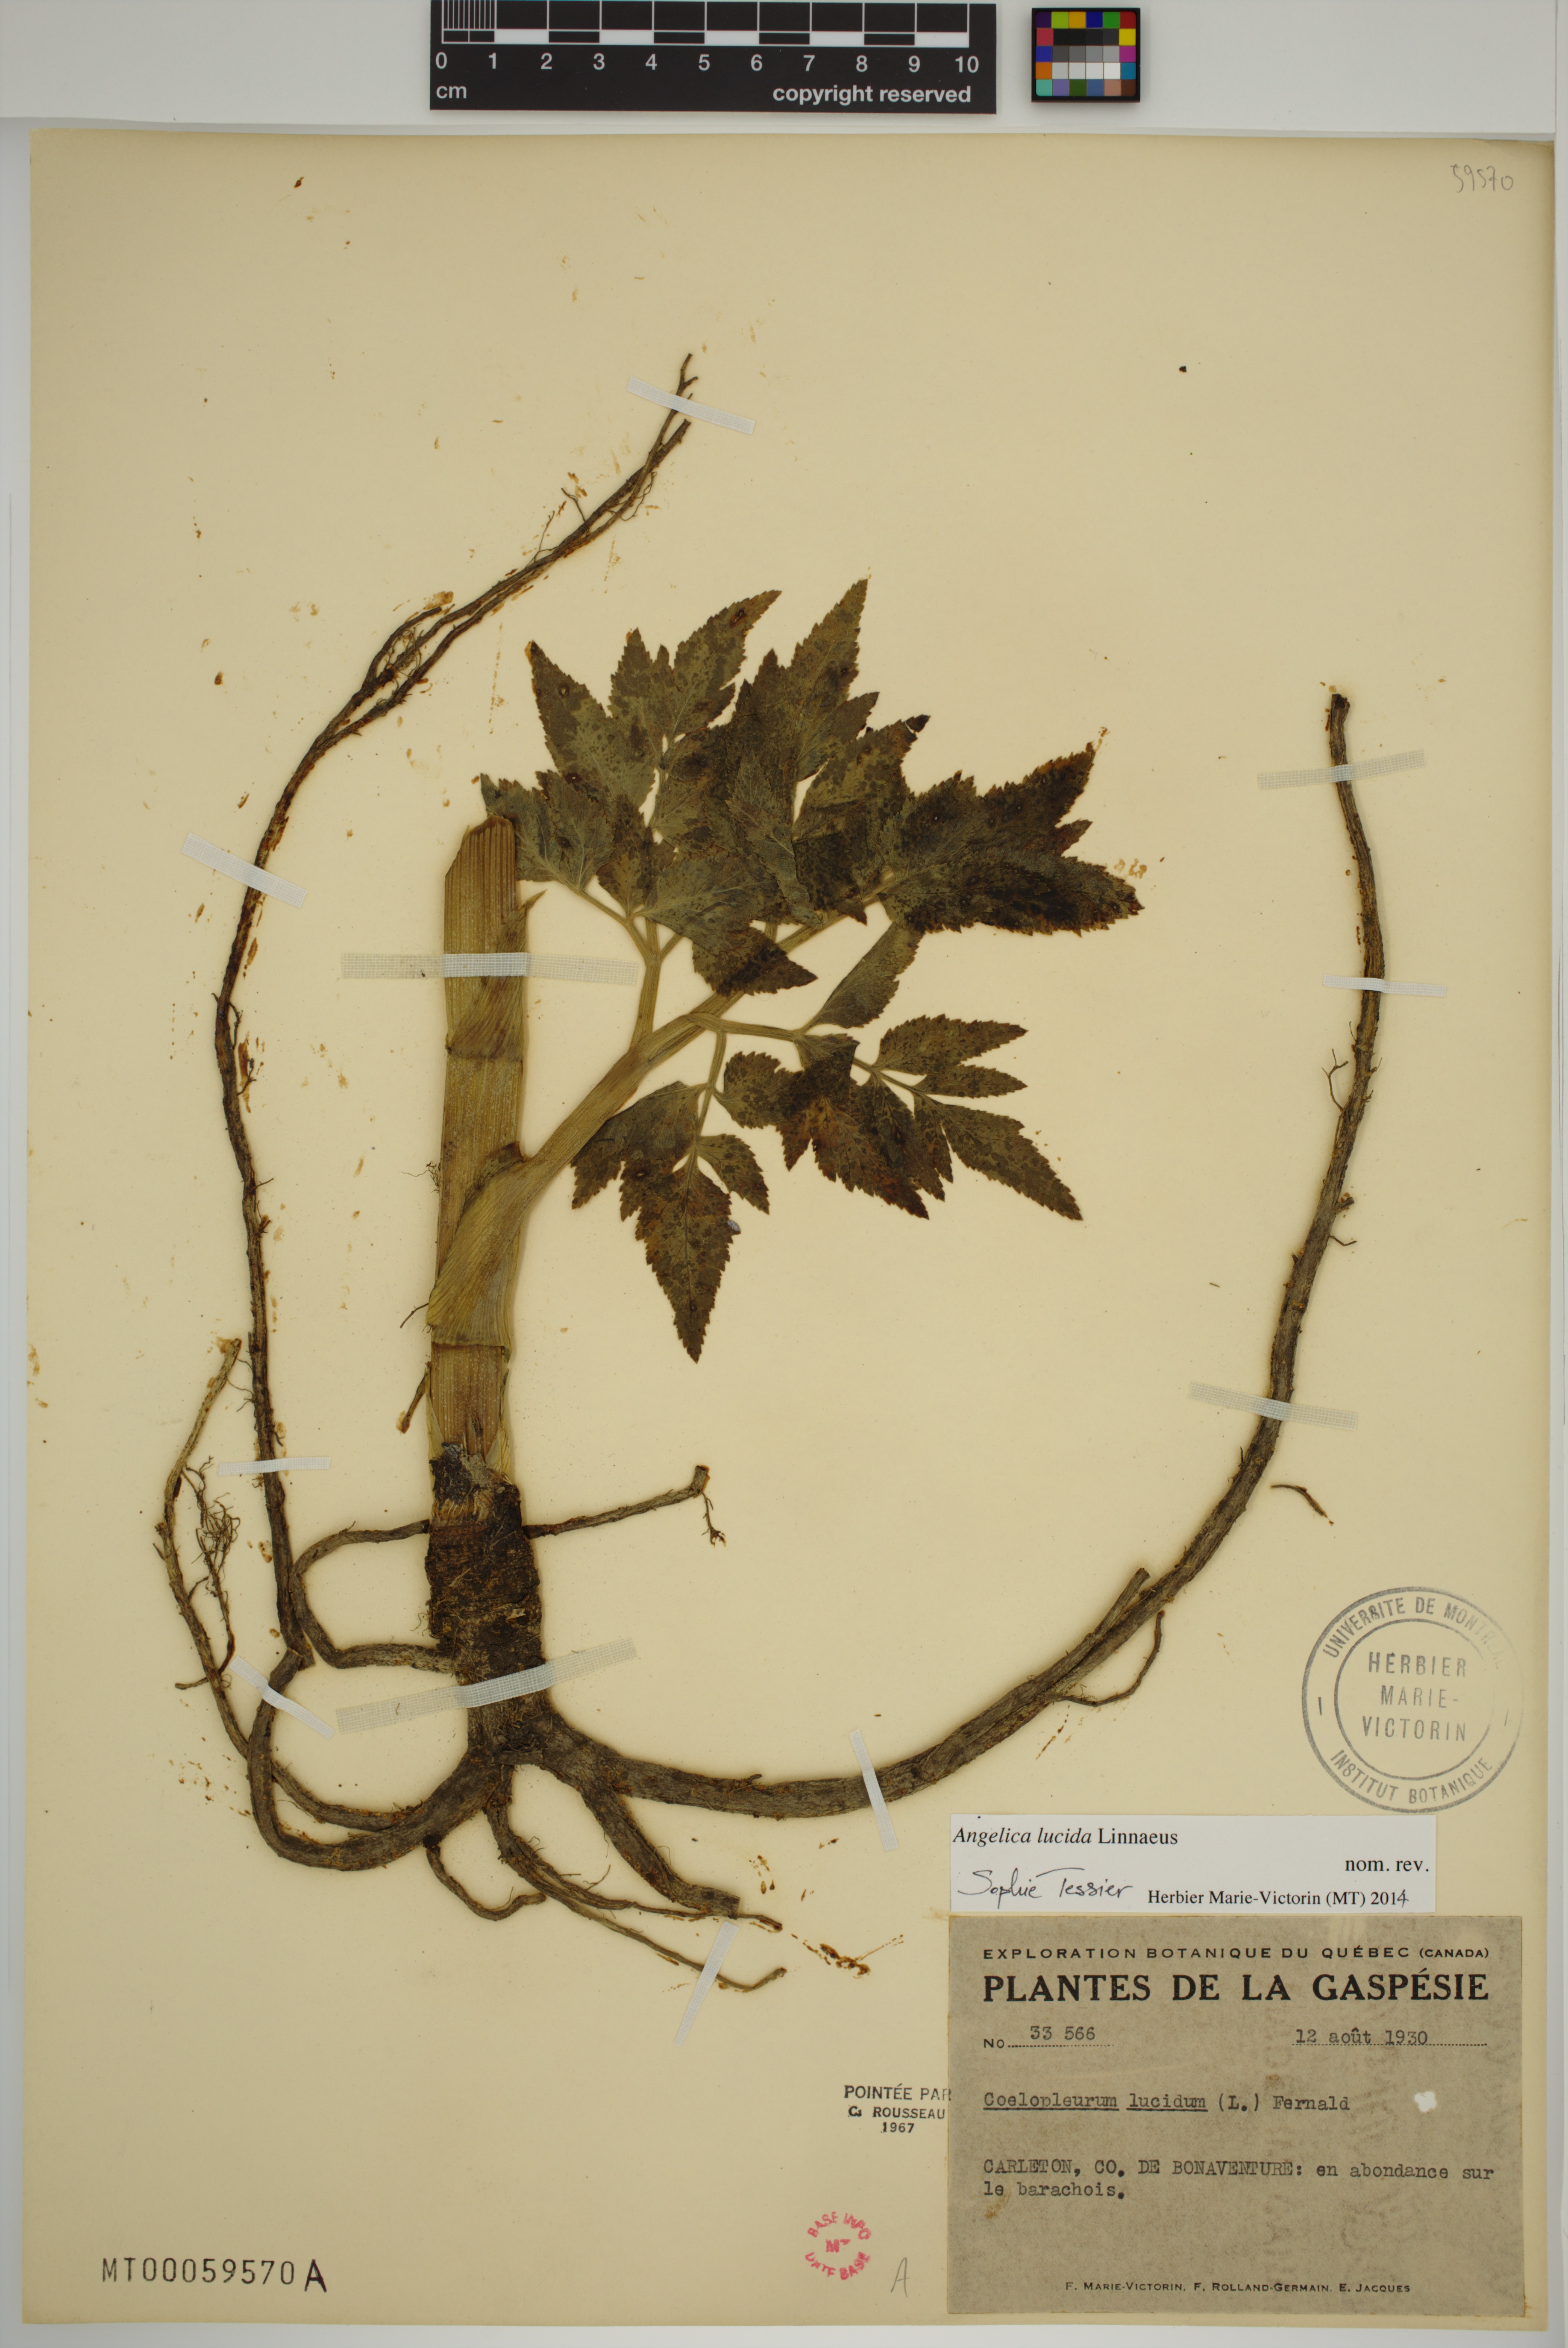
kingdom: Plantae
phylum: Tracheophyta
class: Magnoliopsida
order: Apiales
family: Apiaceae
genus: Angelica
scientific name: Angelica lucida
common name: Seabeach angelica
